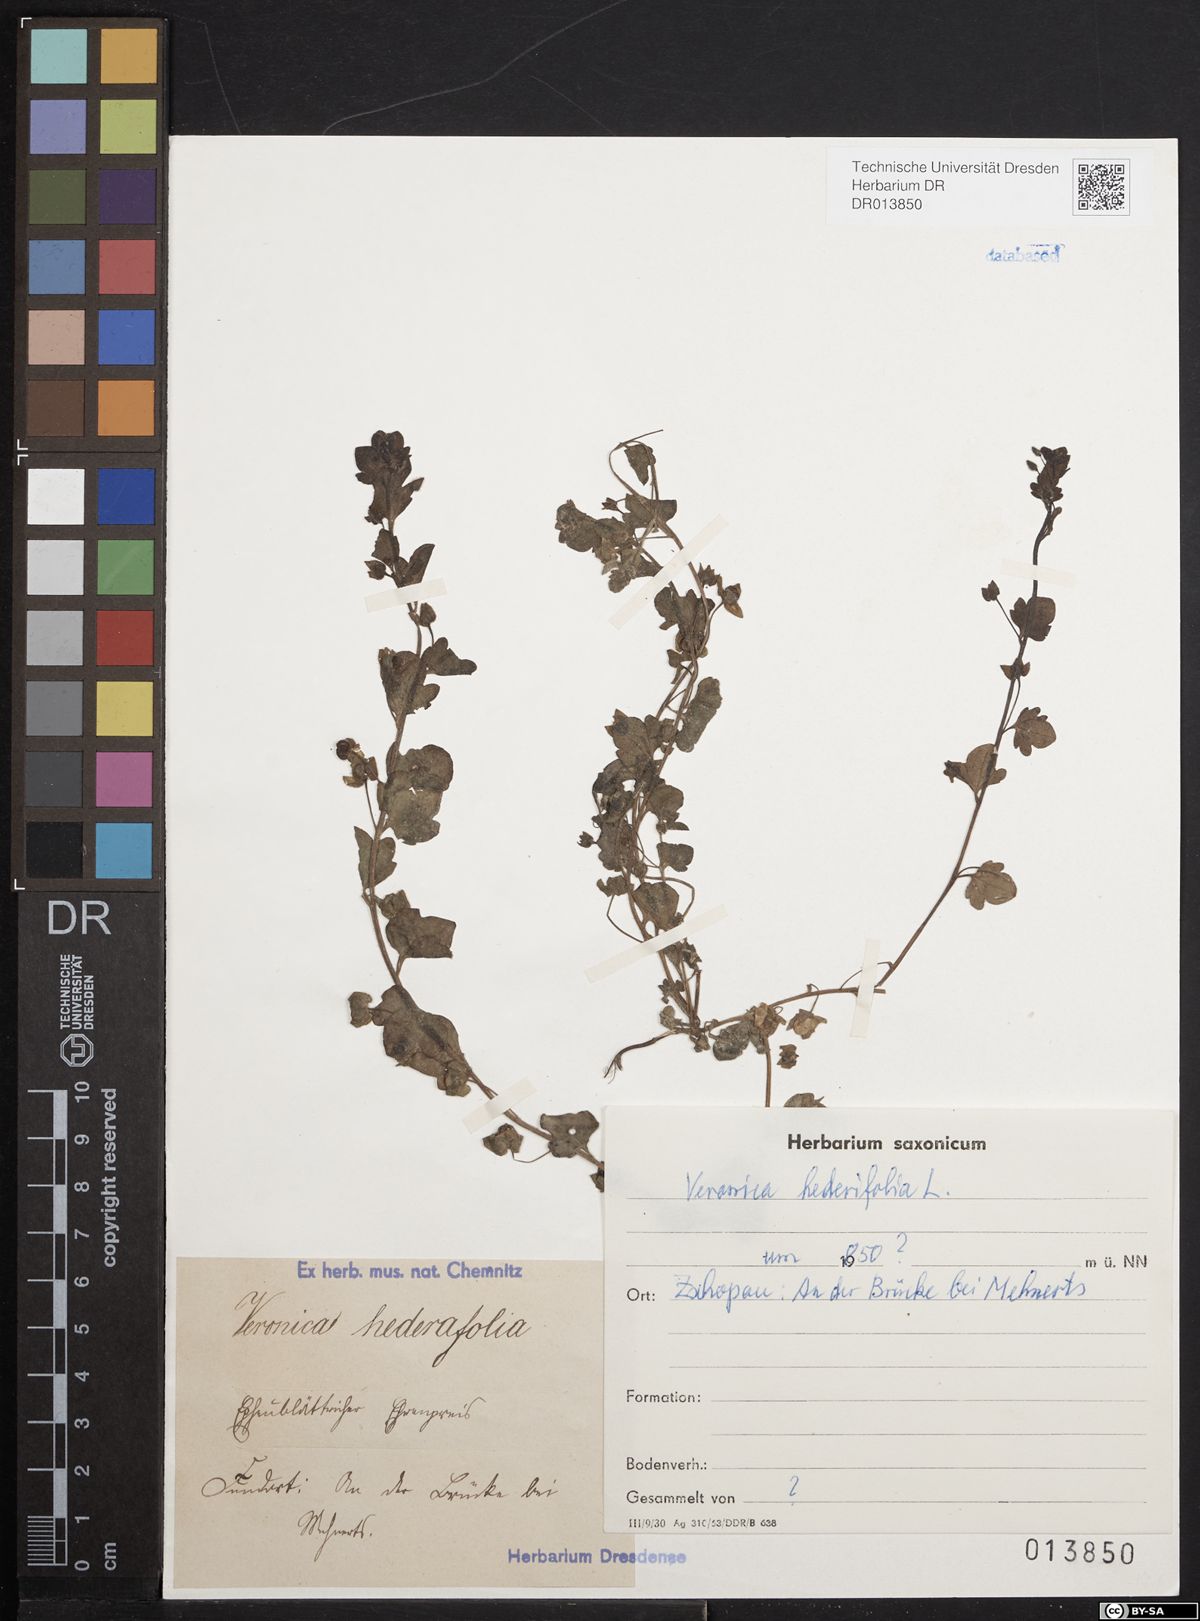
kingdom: Plantae
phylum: Tracheophyta
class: Magnoliopsida
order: Lamiales
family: Plantaginaceae
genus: Veronica
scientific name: Veronica hederifolia
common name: Ivy-leaved speedwell
